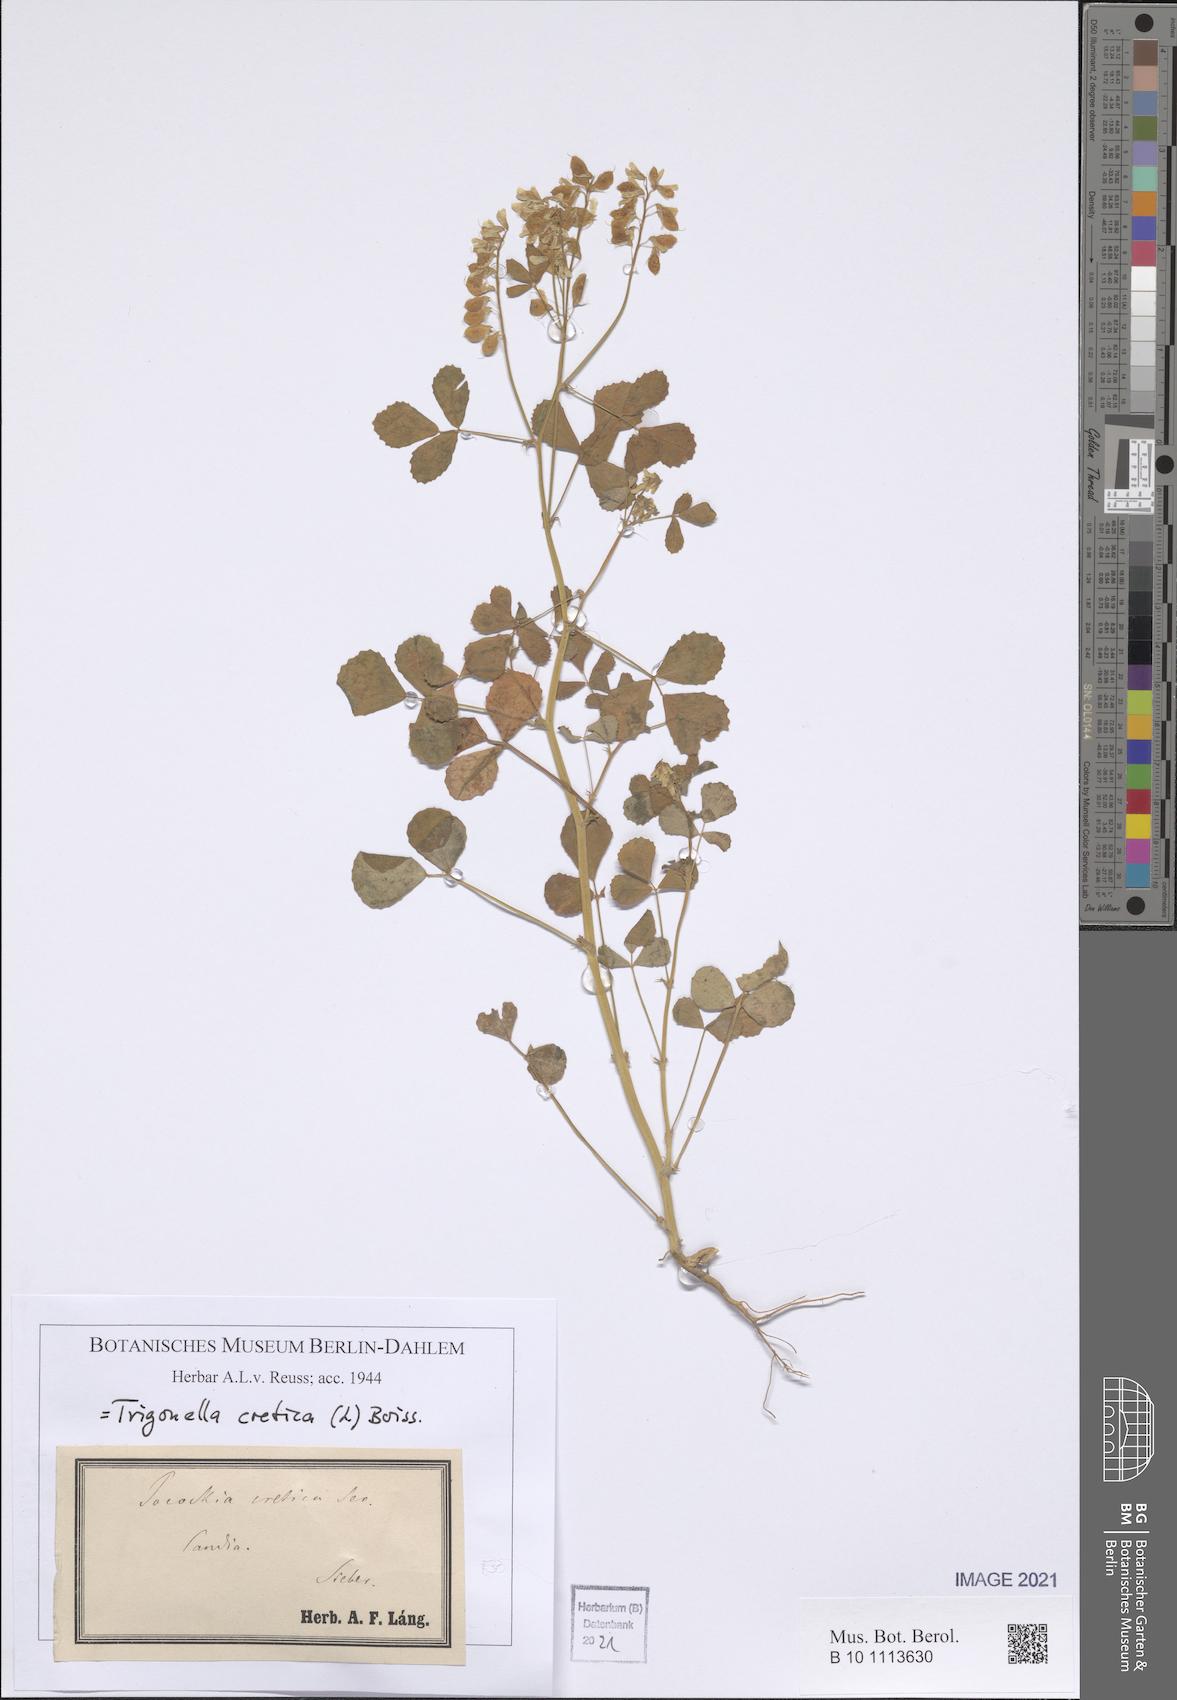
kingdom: Plantae
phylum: Tracheophyta
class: Magnoliopsida
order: Fabales
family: Fabaceae
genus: Trigonella
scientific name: Trigonella cretica
